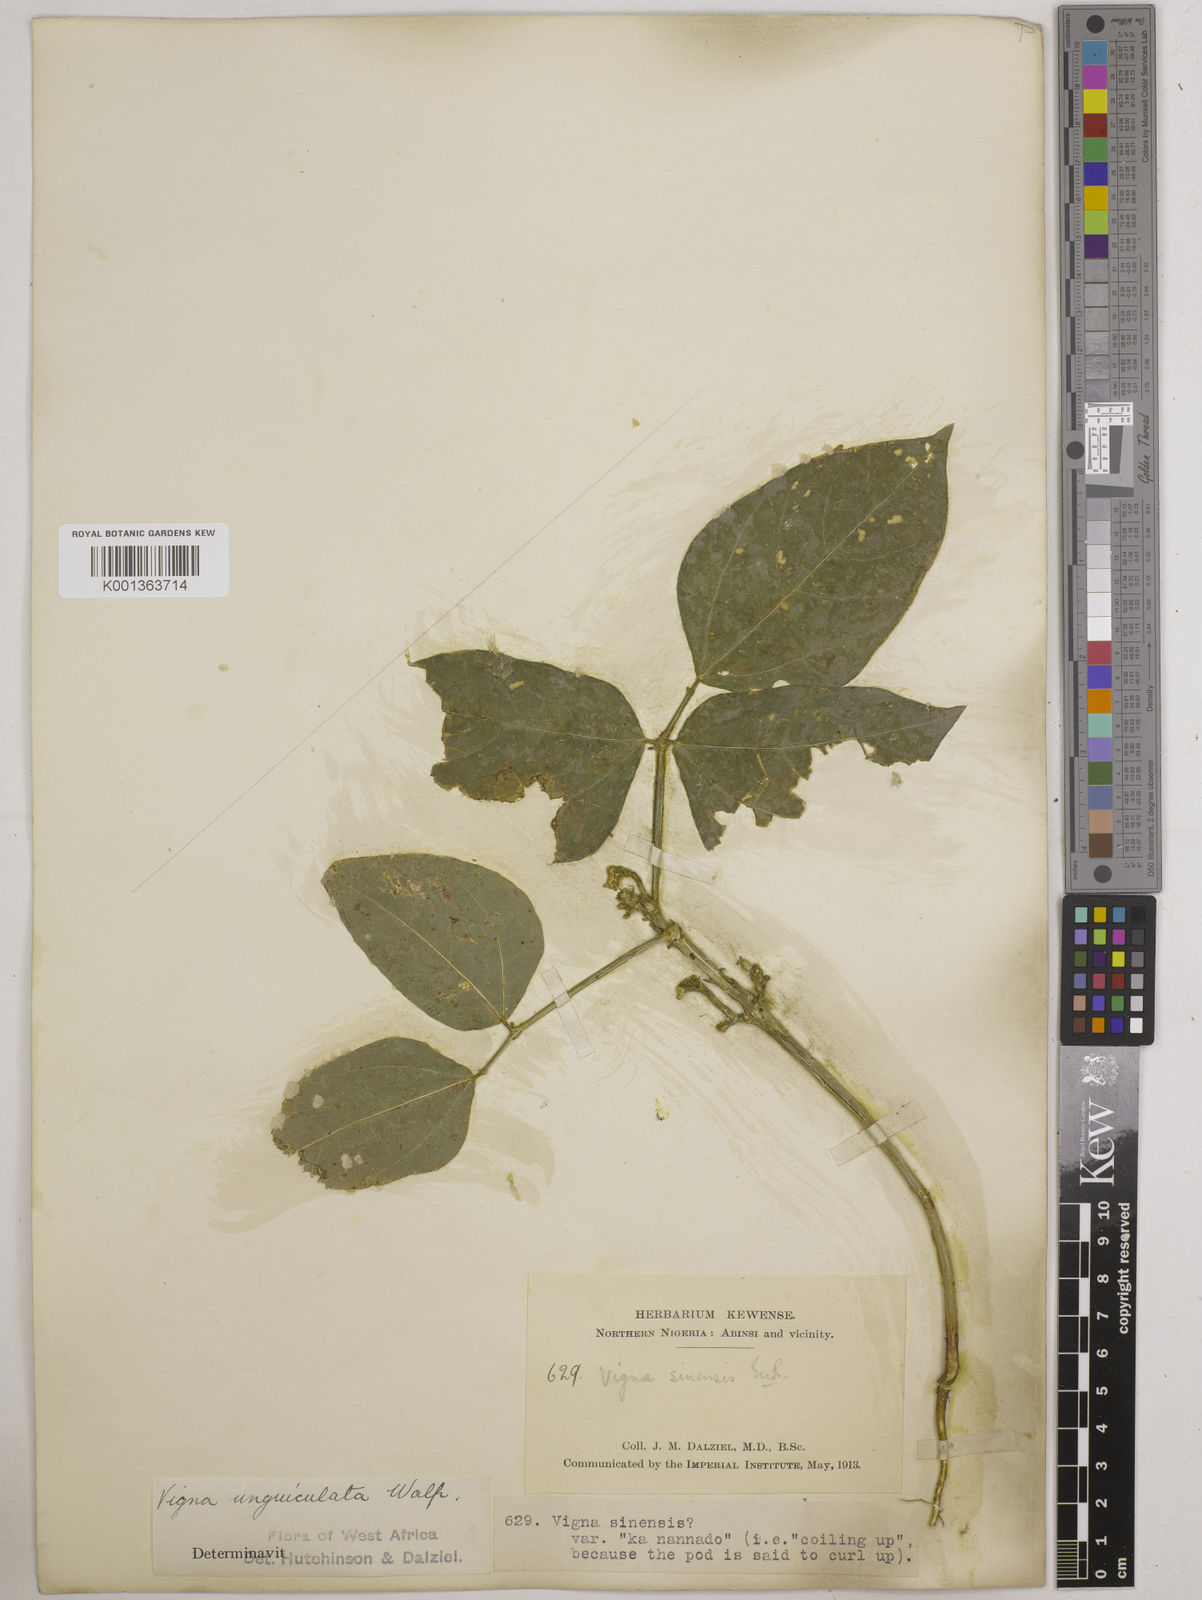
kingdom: Plantae
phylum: Tracheophyta
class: Magnoliopsida
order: Fabales
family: Fabaceae
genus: Vigna
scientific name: Vigna unguiculata
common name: Cowpea
